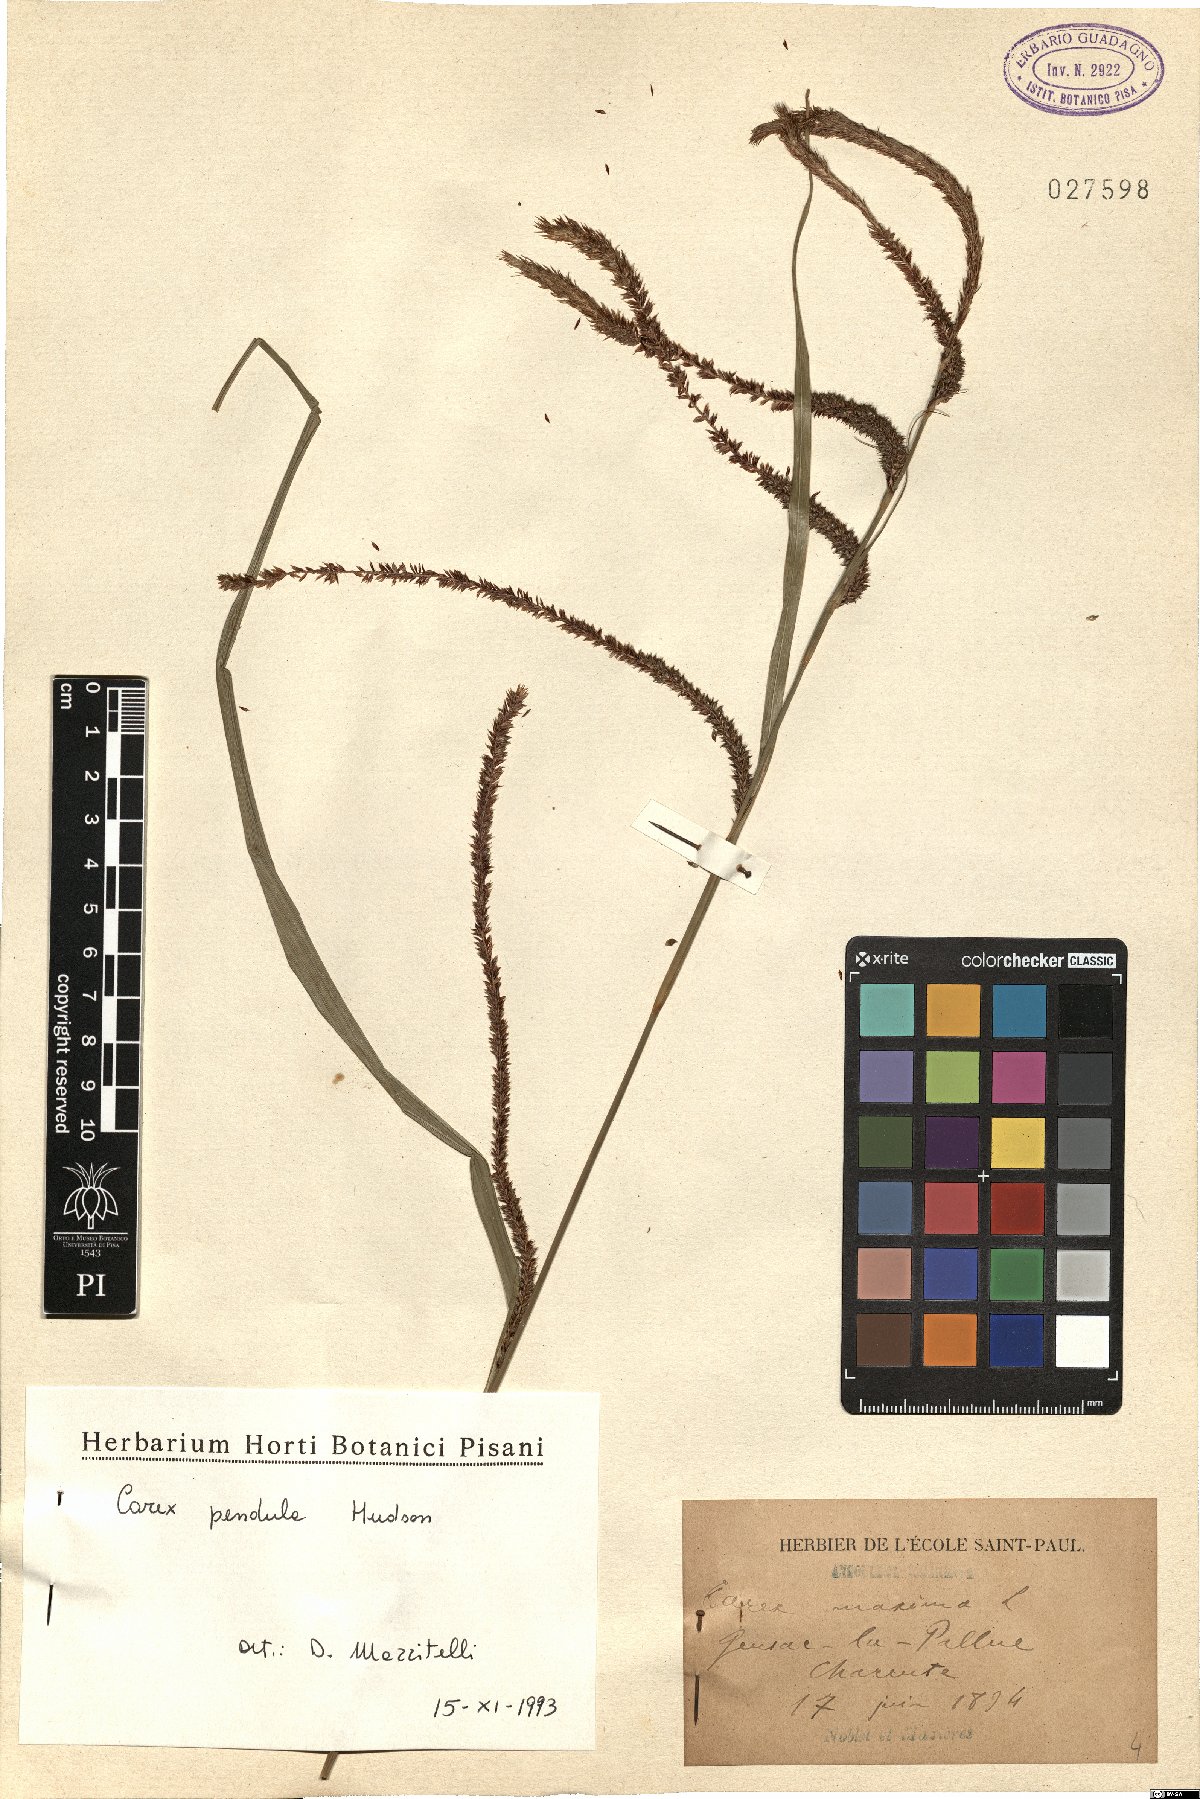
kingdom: Plantae
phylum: Tracheophyta
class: Liliopsida
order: Poales
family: Cyperaceae
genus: Carex
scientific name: Carex pendula
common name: Pendulous sedge
